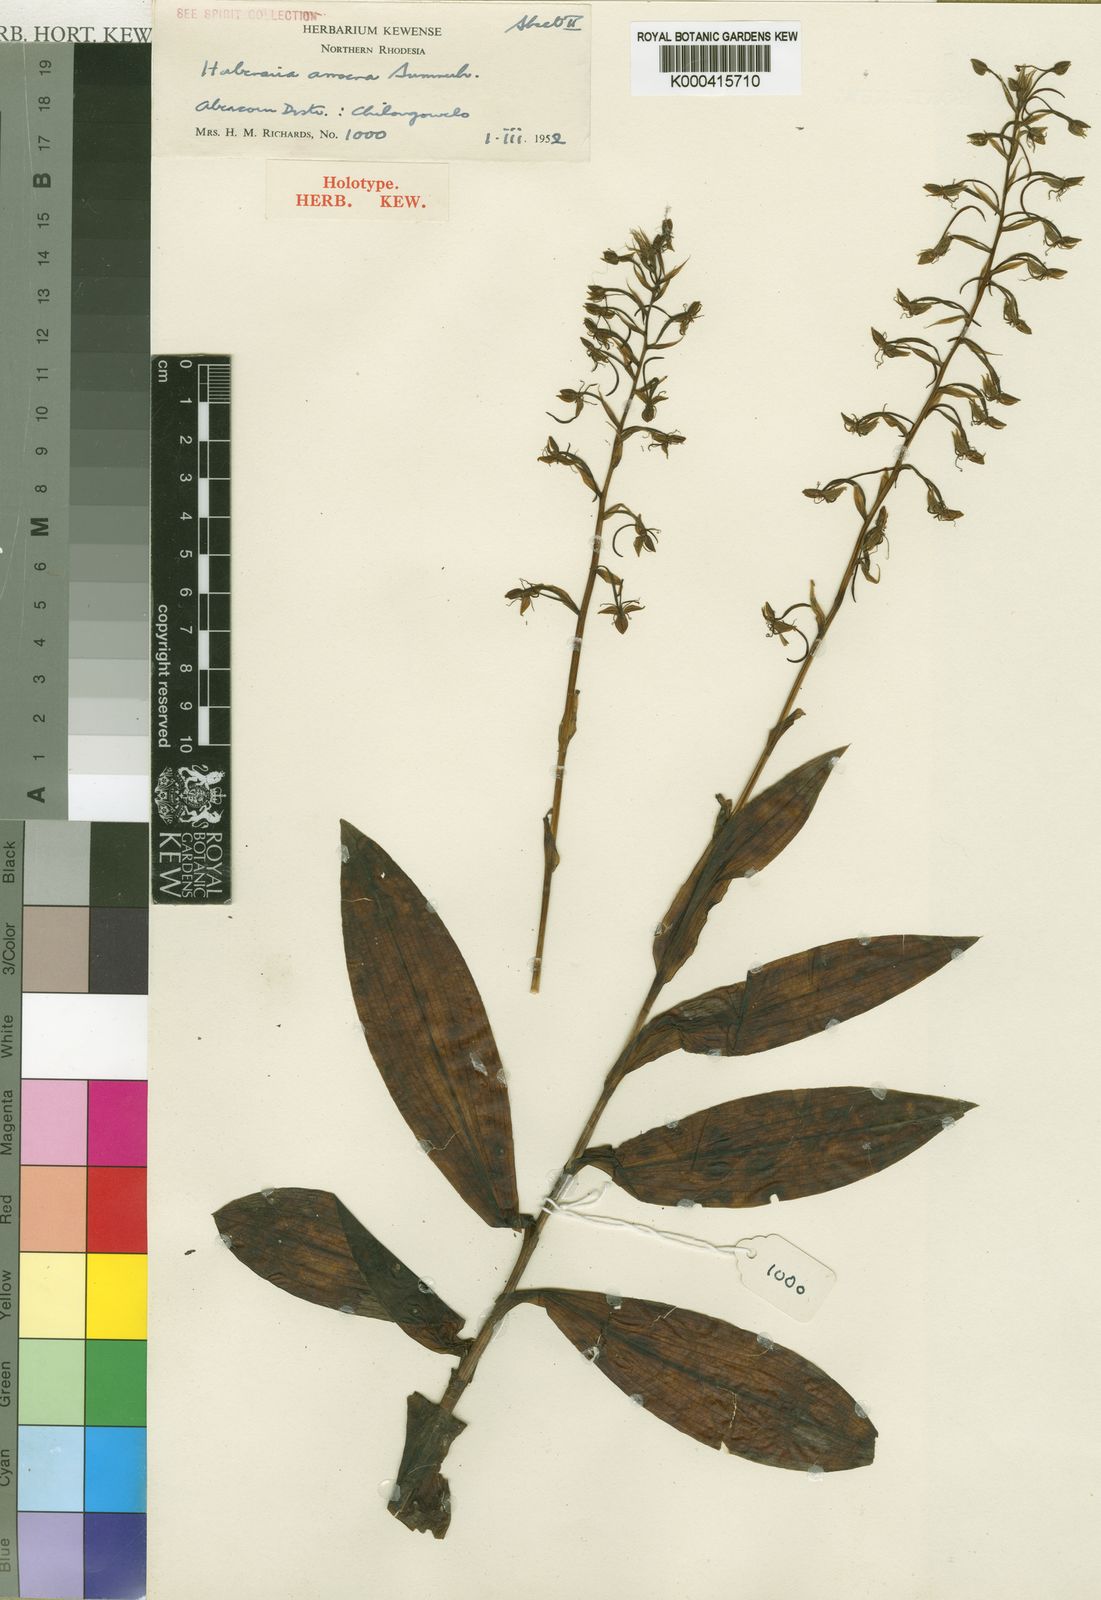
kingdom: Plantae
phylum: Tracheophyta
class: Liliopsida
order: Asparagales
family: Orchidaceae
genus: Habenaria
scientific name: Habenaria amoena
